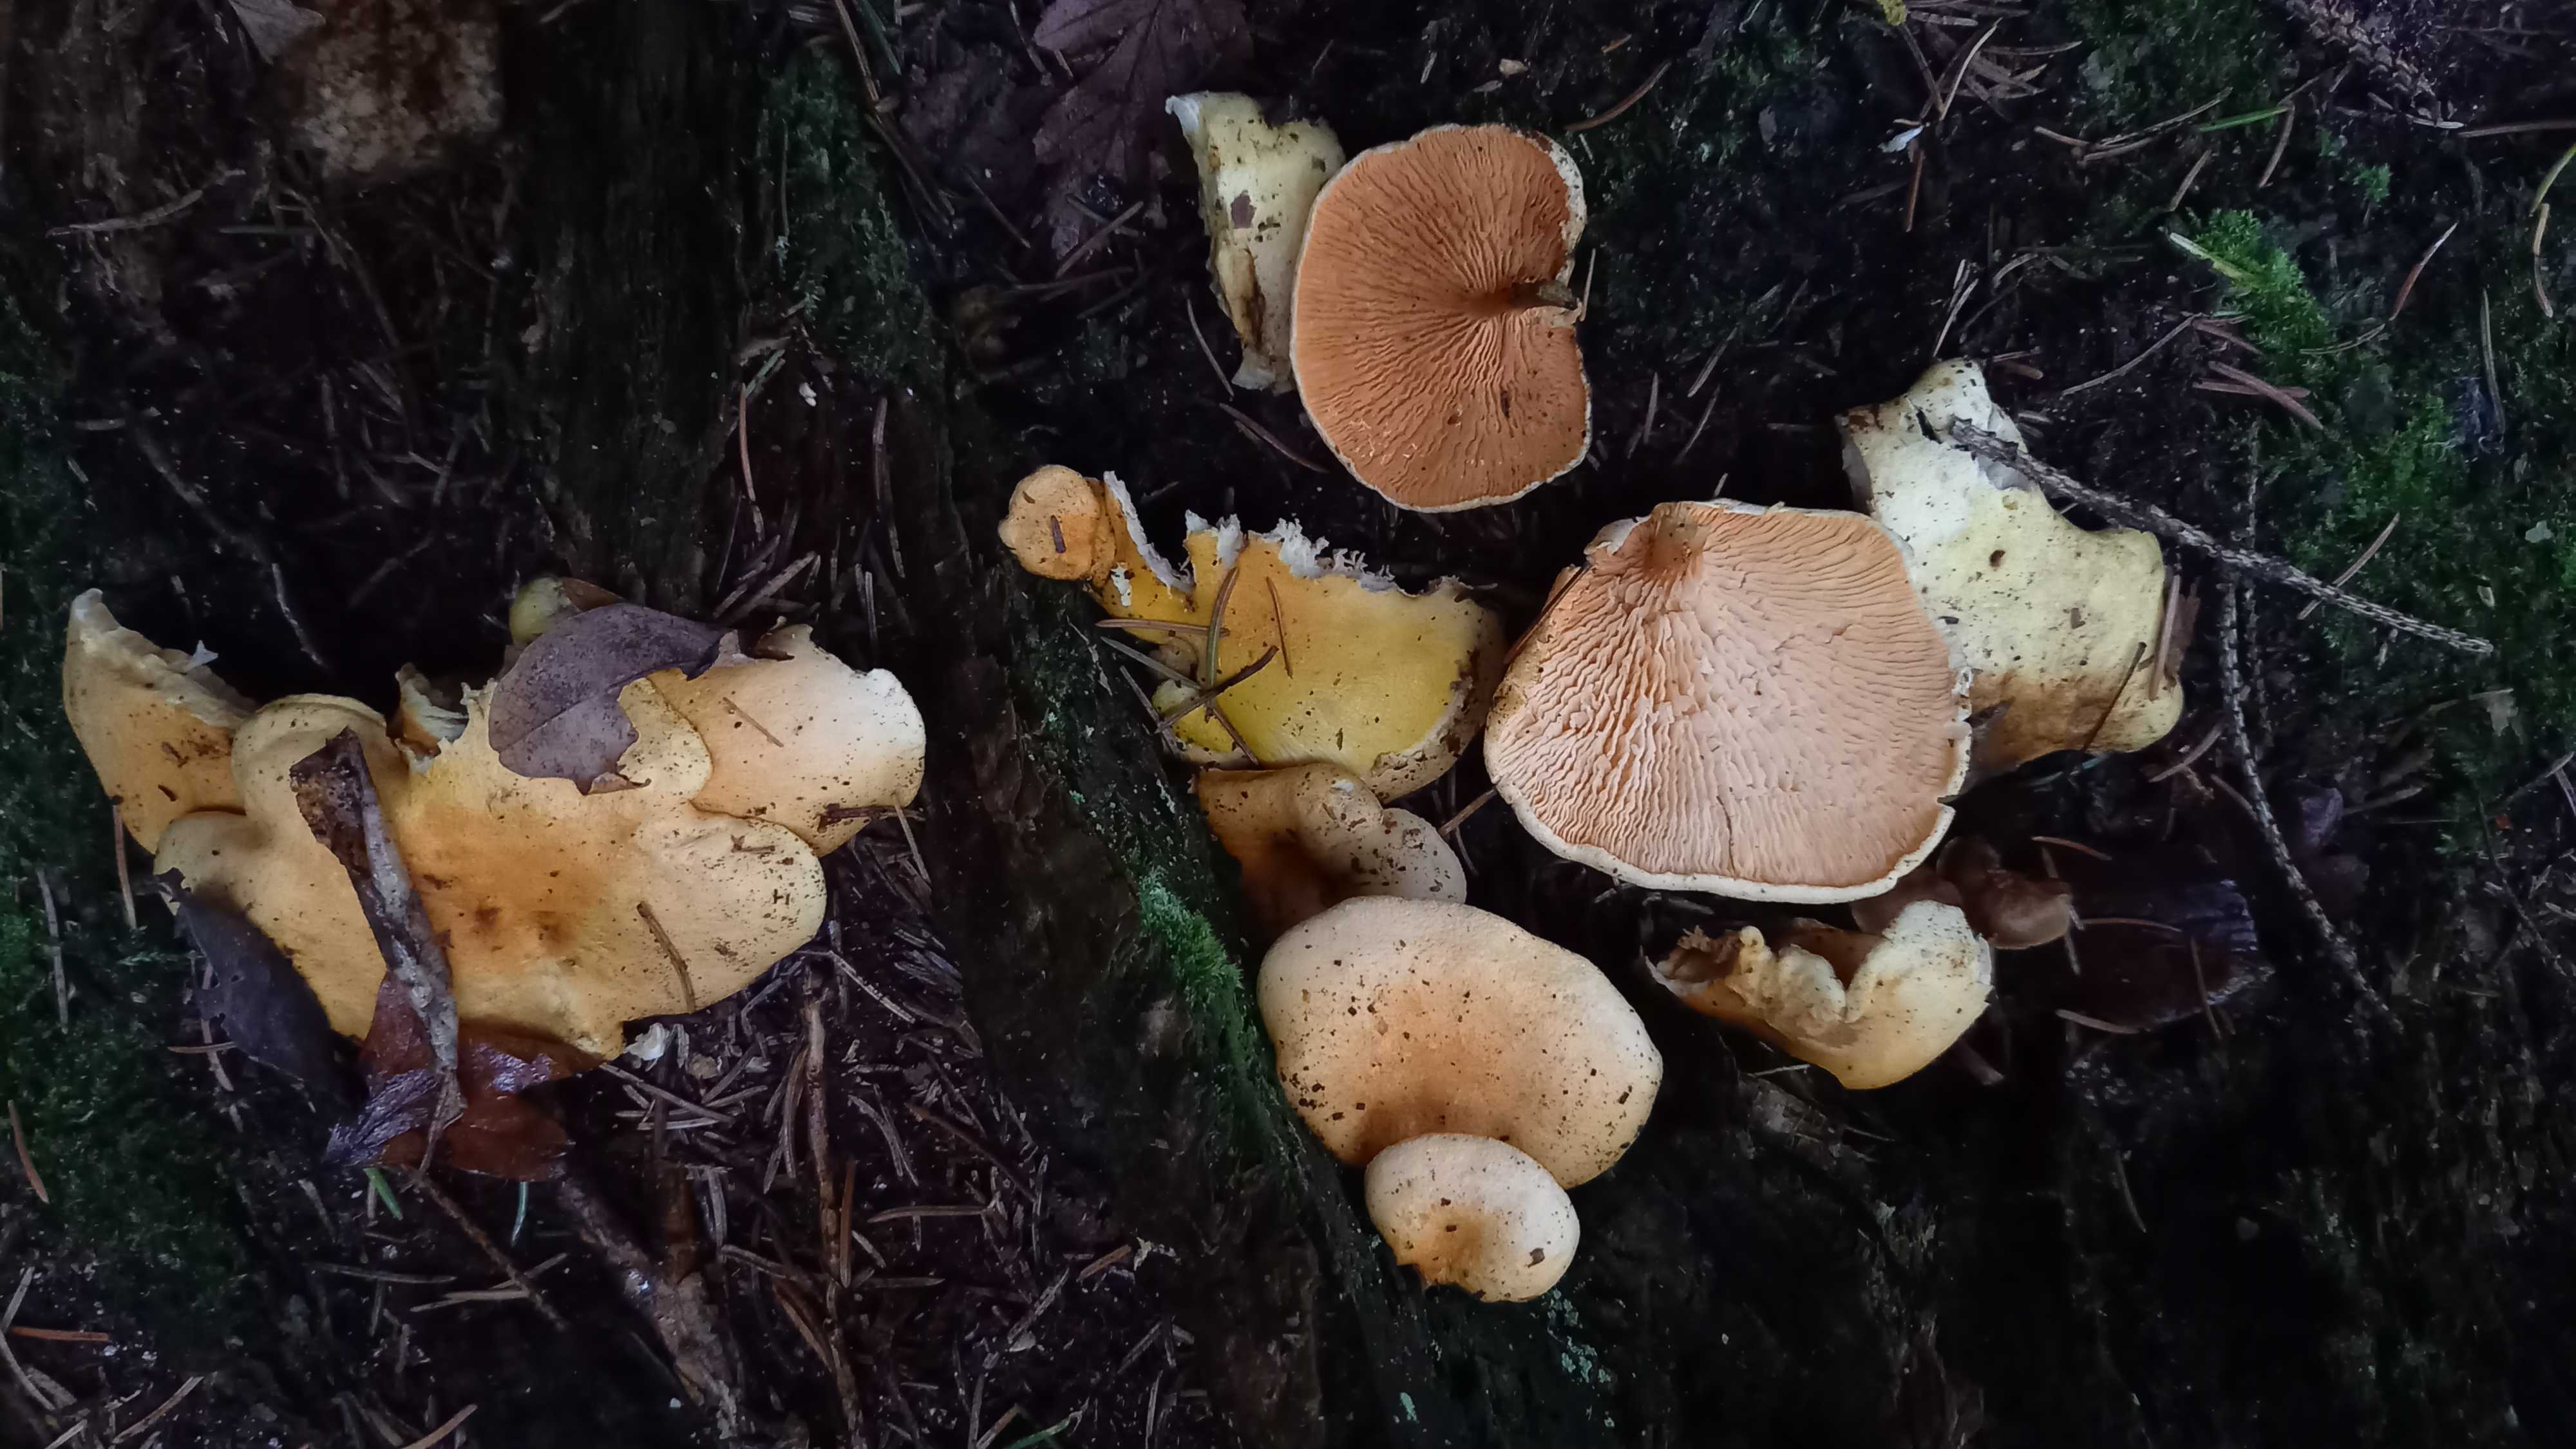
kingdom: Fungi
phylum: Basidiomycota
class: Agaricomycetes
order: Boletales
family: Hygrophoropsidaceae
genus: Hygrophoropsis
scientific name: Hygrophoropsis aurantiaca
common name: almindelig orangekantarel
